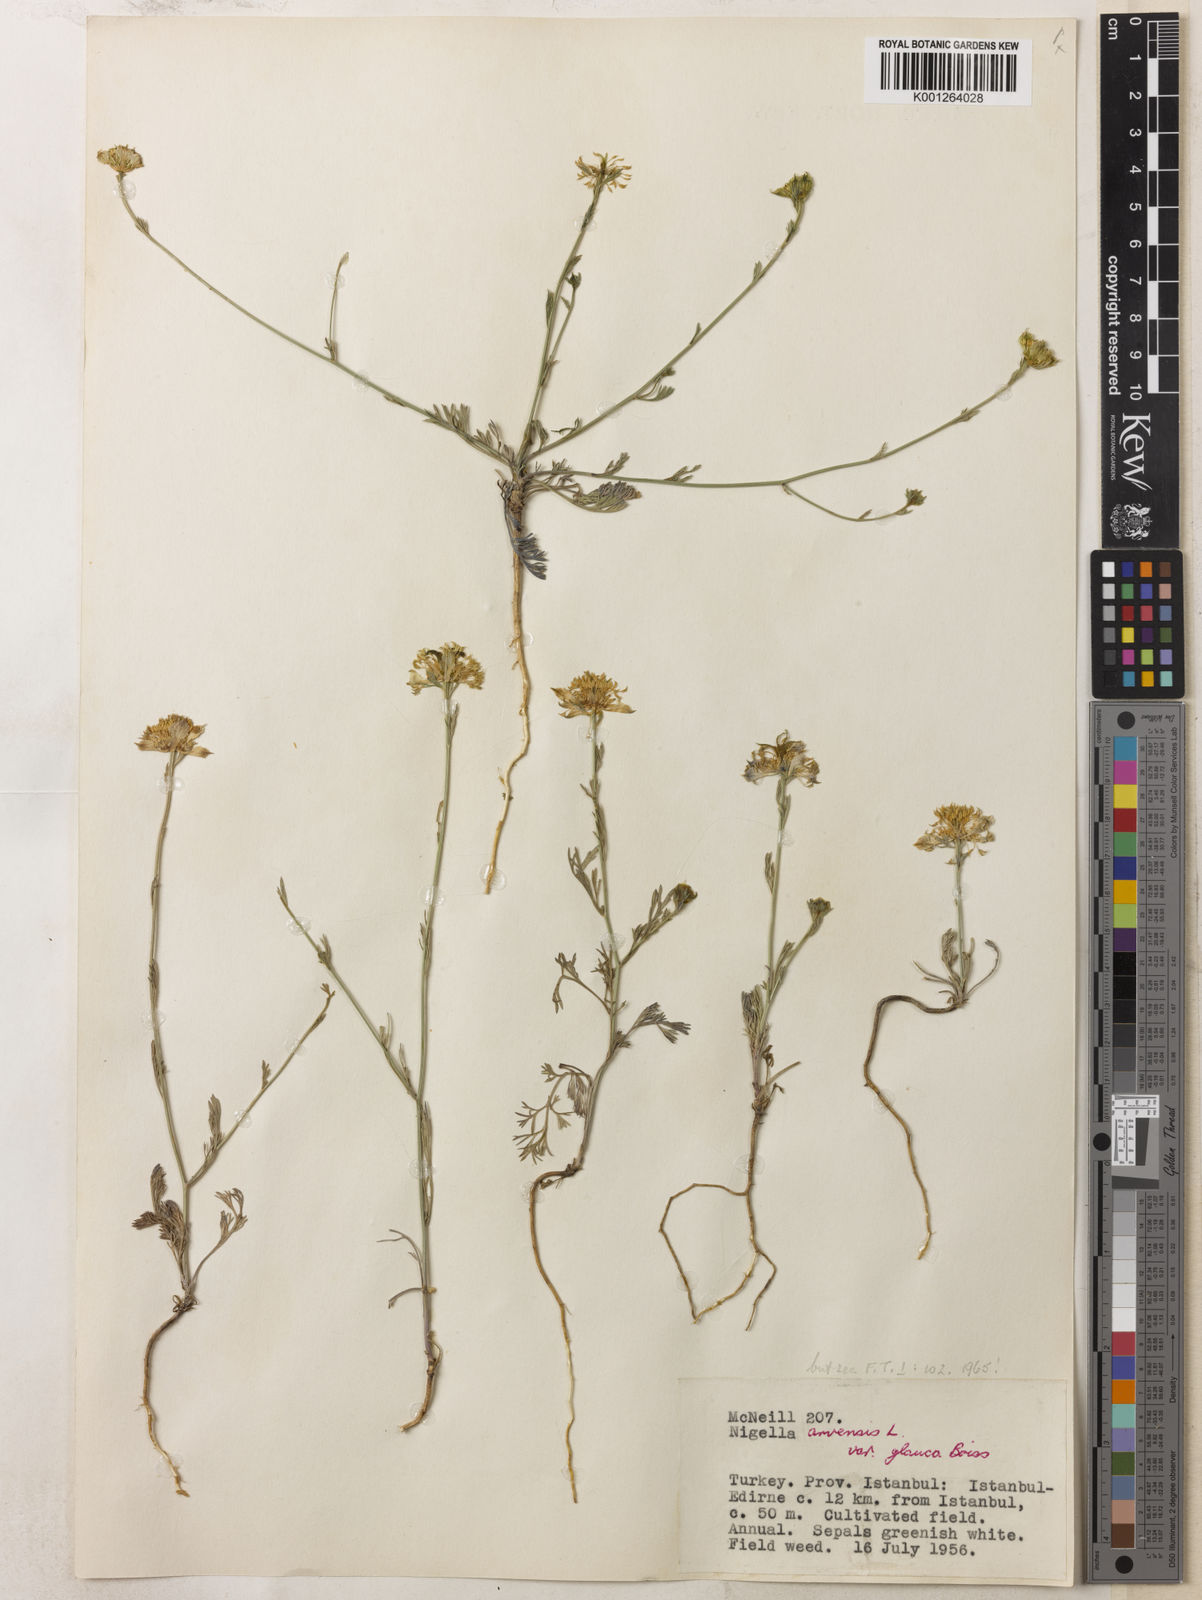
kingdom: Plantae
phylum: Tracheophyta
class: Magnoliopsida
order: Ranunculales
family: Ranunculaceae
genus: Nigella
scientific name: Nigella arvensis
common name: Wild fennel-flower
